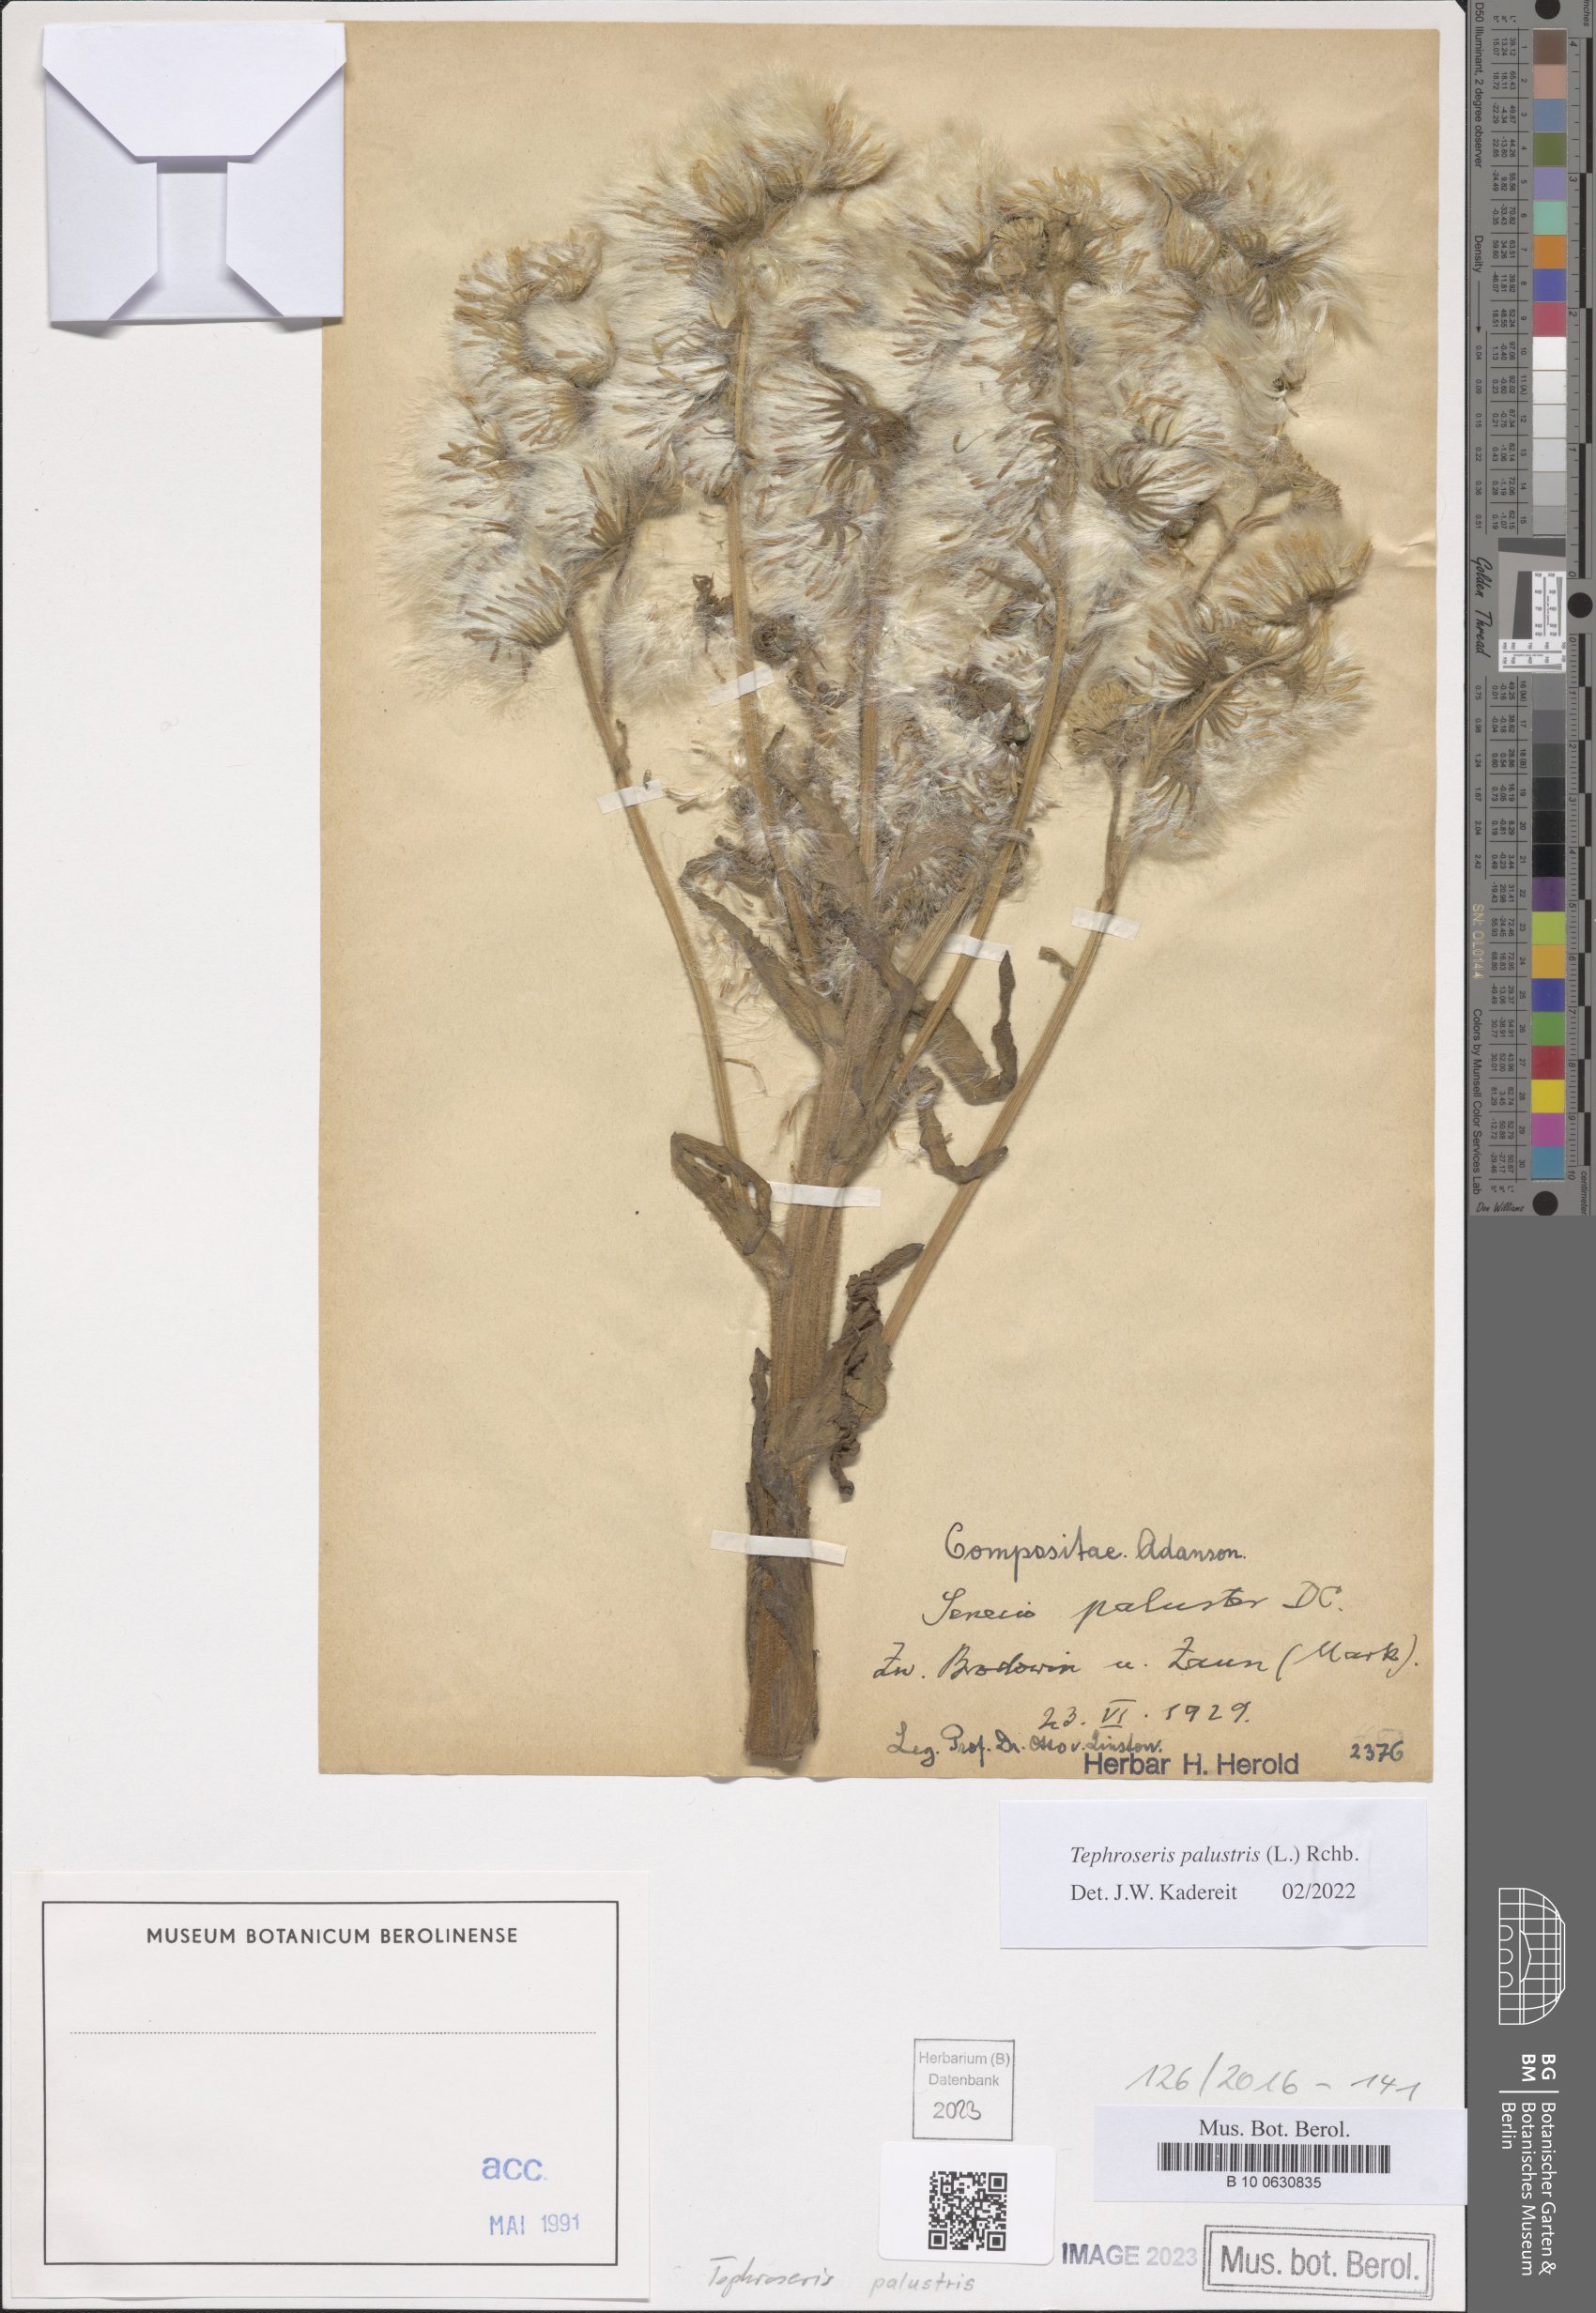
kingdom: Plantae
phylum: Tracheophyta
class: Magnoliopsida
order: Asterales
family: Asteraceae
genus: Tephroseris
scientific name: Tephroseris palustris
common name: Marsh fleawort
